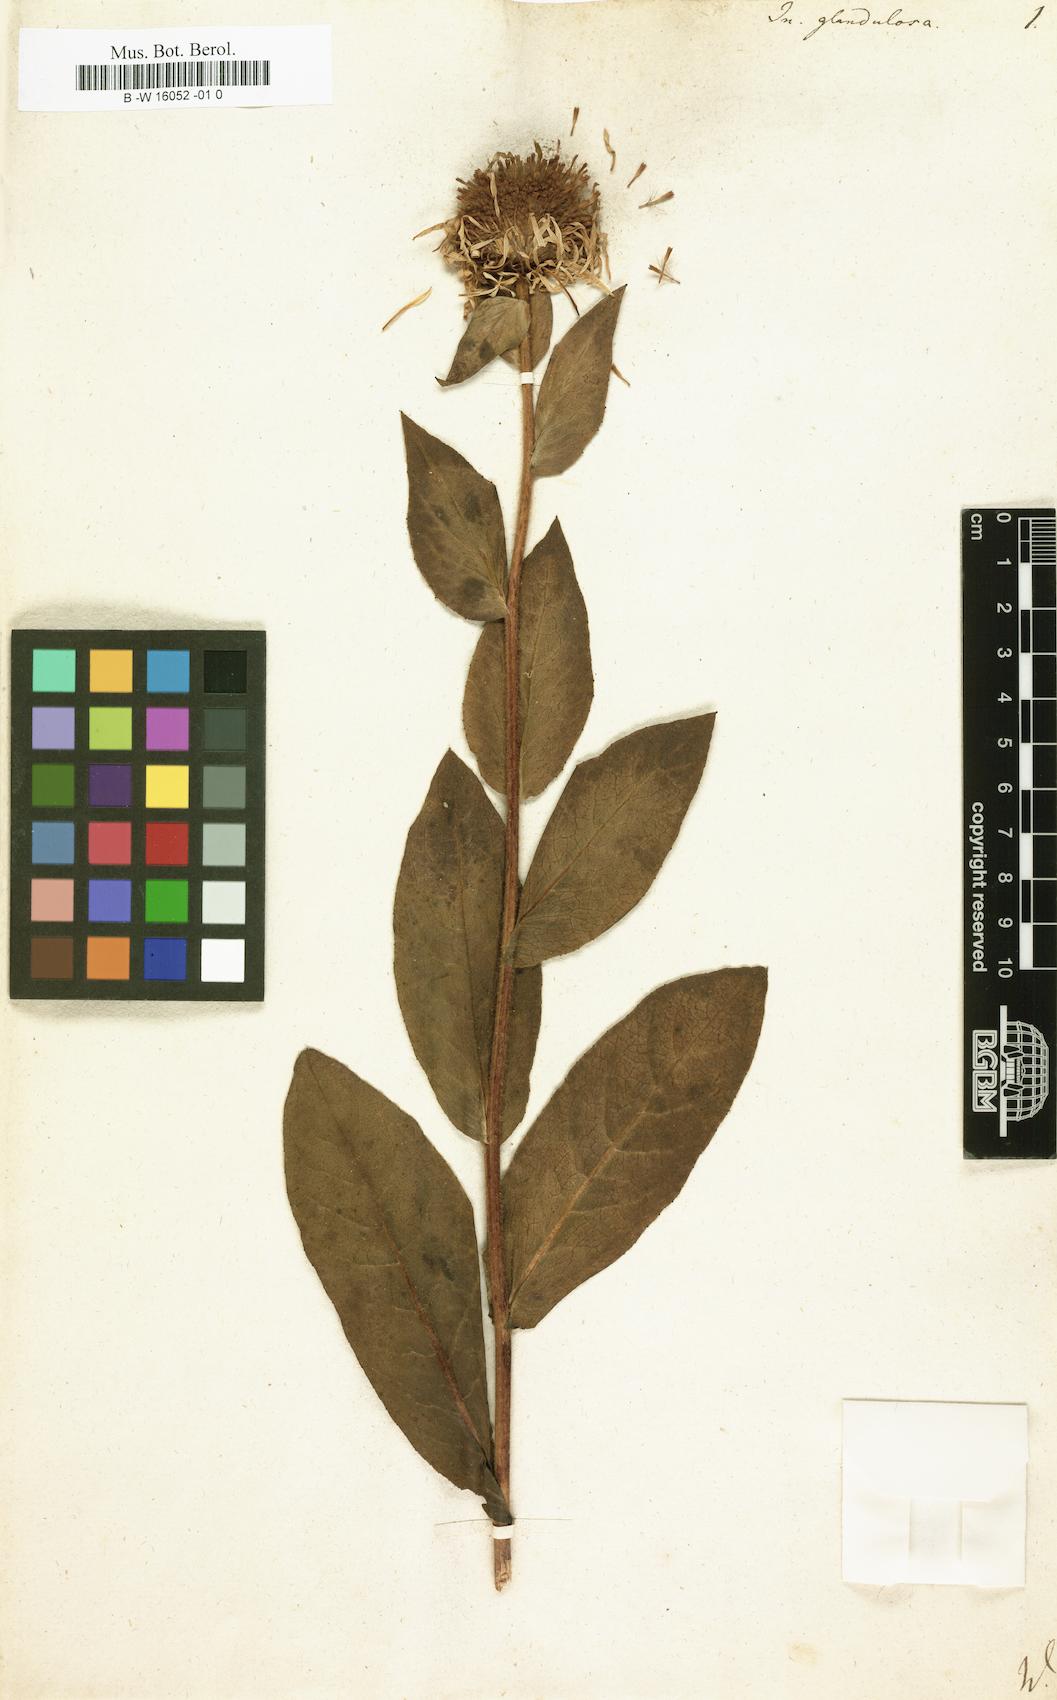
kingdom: Plantae
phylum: Tracheophyta
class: Magnoliopsida
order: Asterales
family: Asteraceae
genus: Chrysopsis
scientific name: Chrysopsis mariana
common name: Maryland golden-aster
